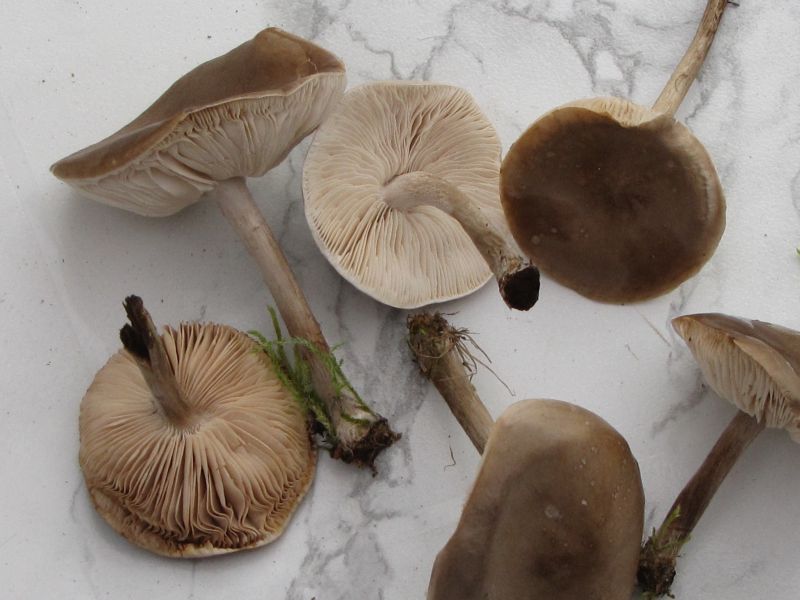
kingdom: Fungi
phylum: Basidiomycota
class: Agaricomycetes
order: Agaricales
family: Tricholomataceae
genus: Melanoleuca
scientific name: Melanoleuca polioleuca
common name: almindelig munkehat
